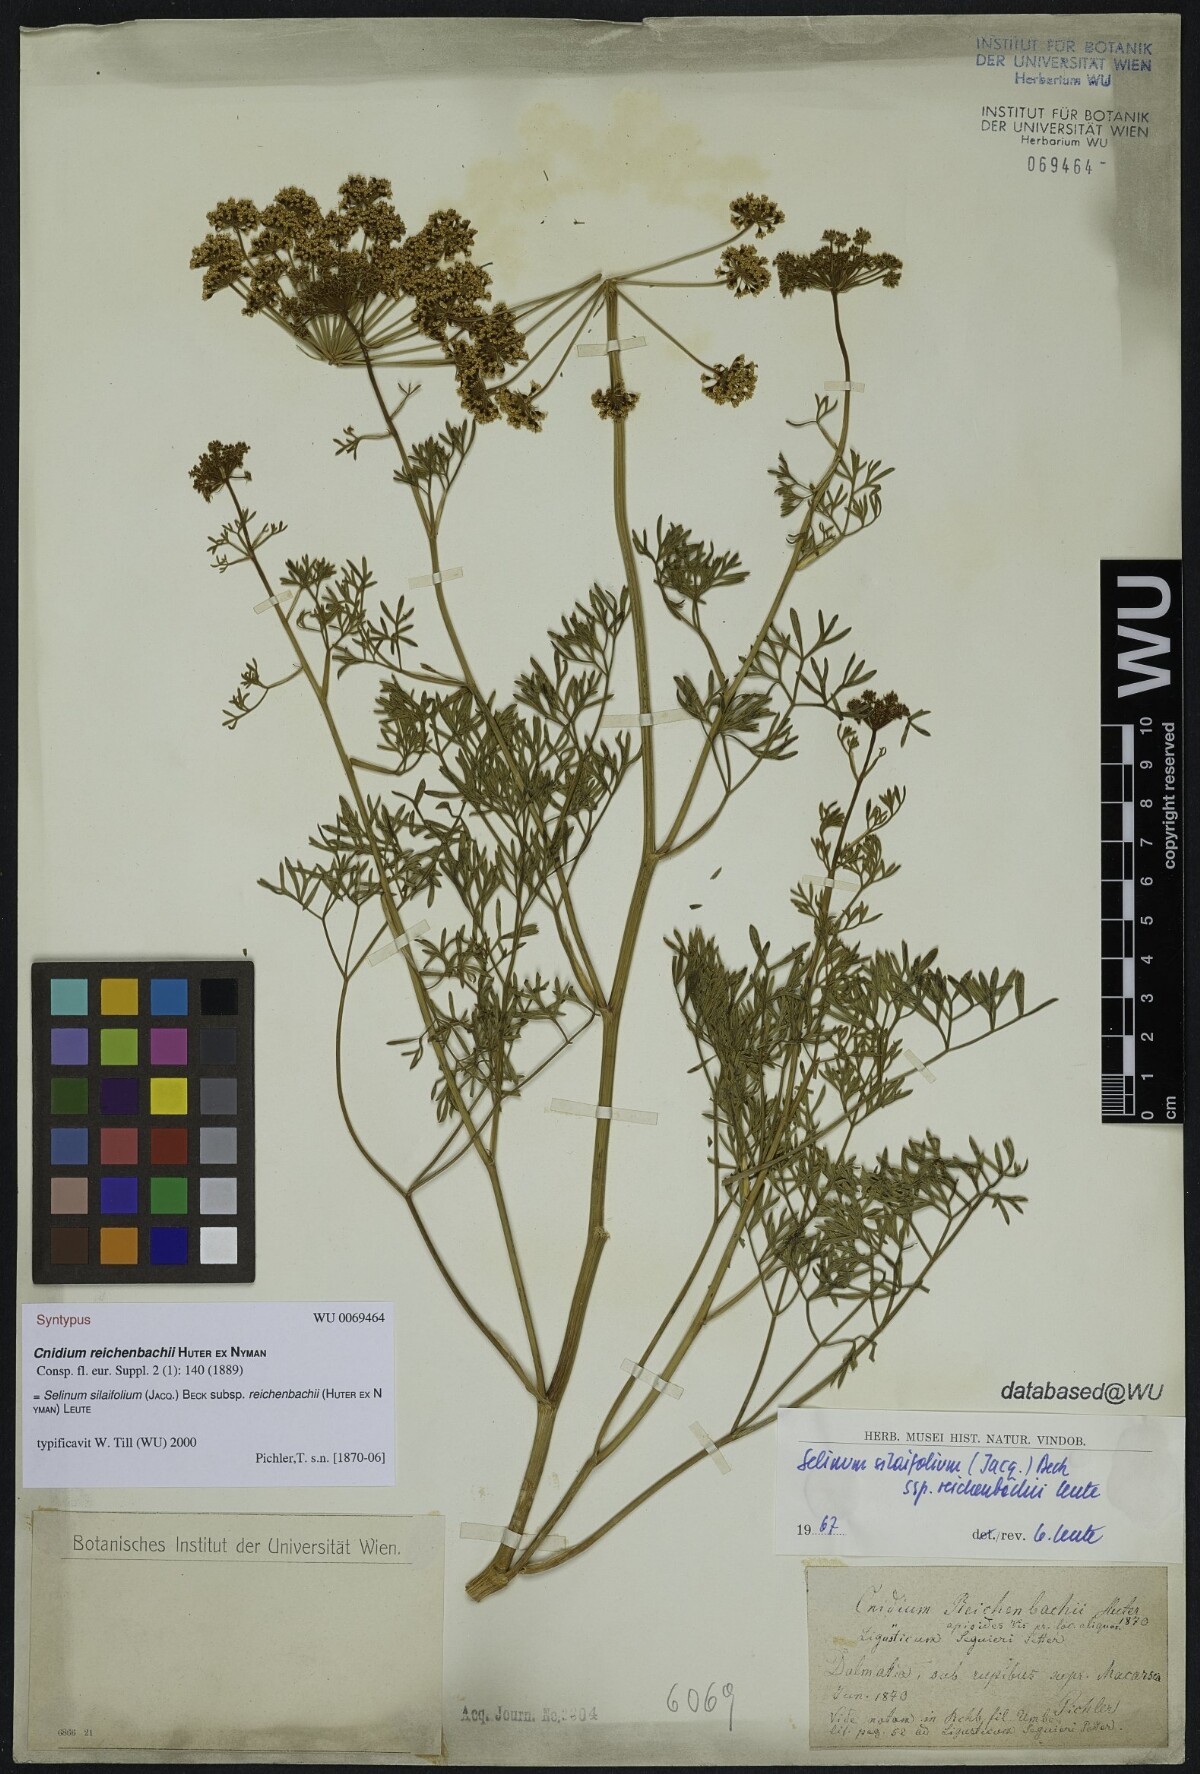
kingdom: Plantae
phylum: Tracheophyta
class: Magnoliopsida
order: Apiales
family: Apiaceae
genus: Cnidium
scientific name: Cnidium reichenbachii
